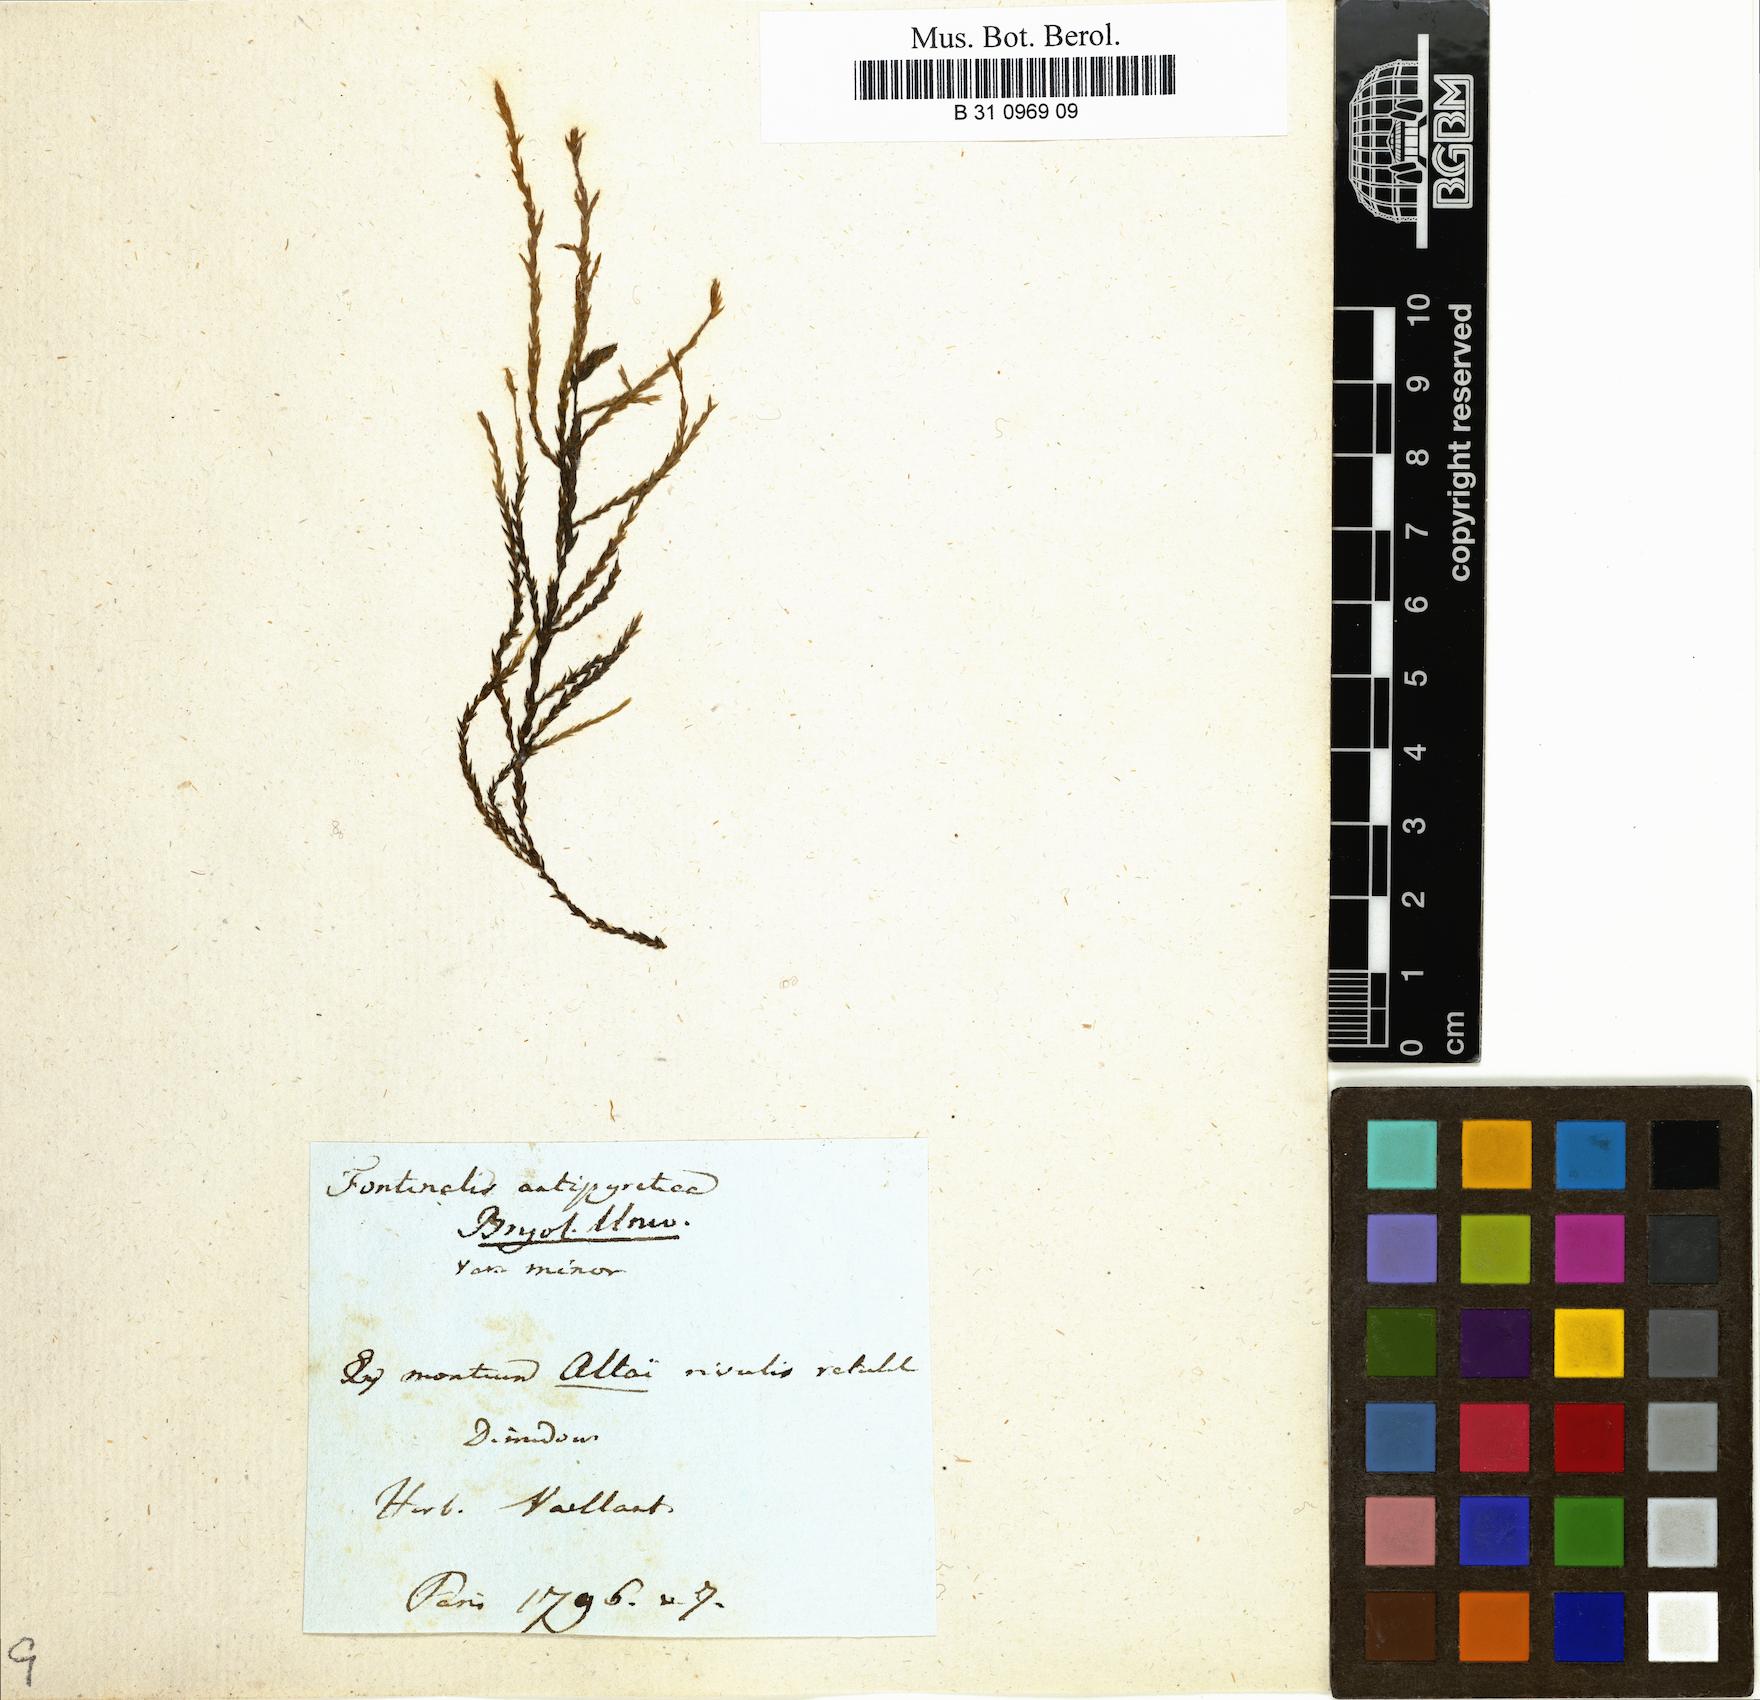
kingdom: Plantae
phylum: Bryophyta
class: Bryopsida
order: Hypnales
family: Fontinalaceae
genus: Fontinalis
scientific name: Fontinalis antipyretica
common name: Greater water-moss
